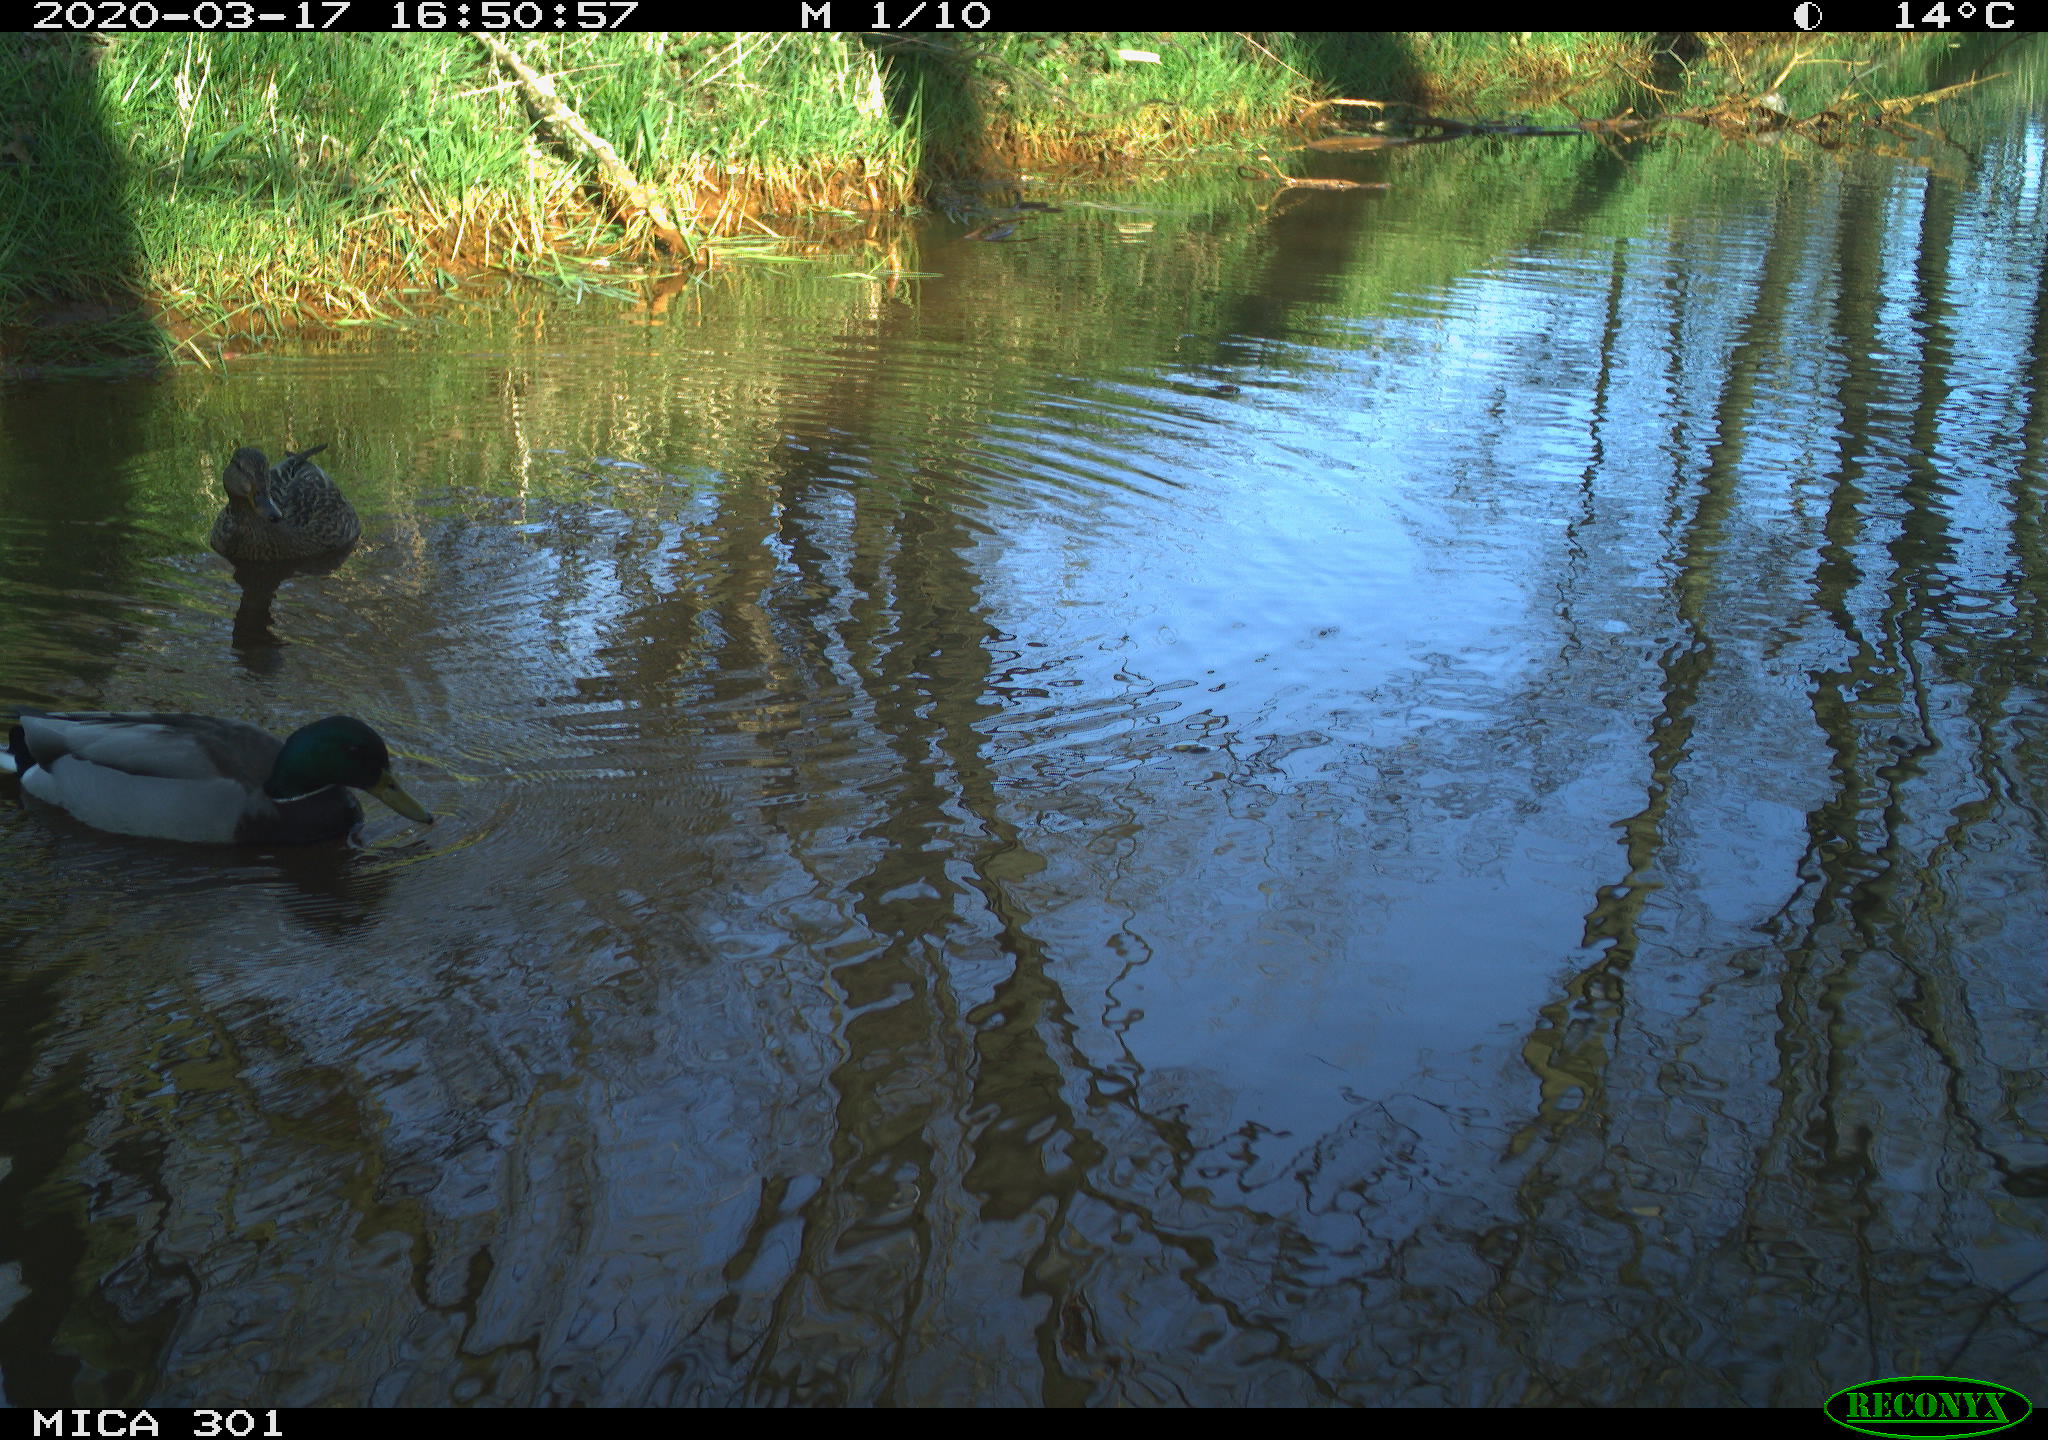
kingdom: Animalia
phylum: Chordata
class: Aves
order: Anseriformes
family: Anatidae
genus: Anas
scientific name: Anas platyrhynchos
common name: Mallard
